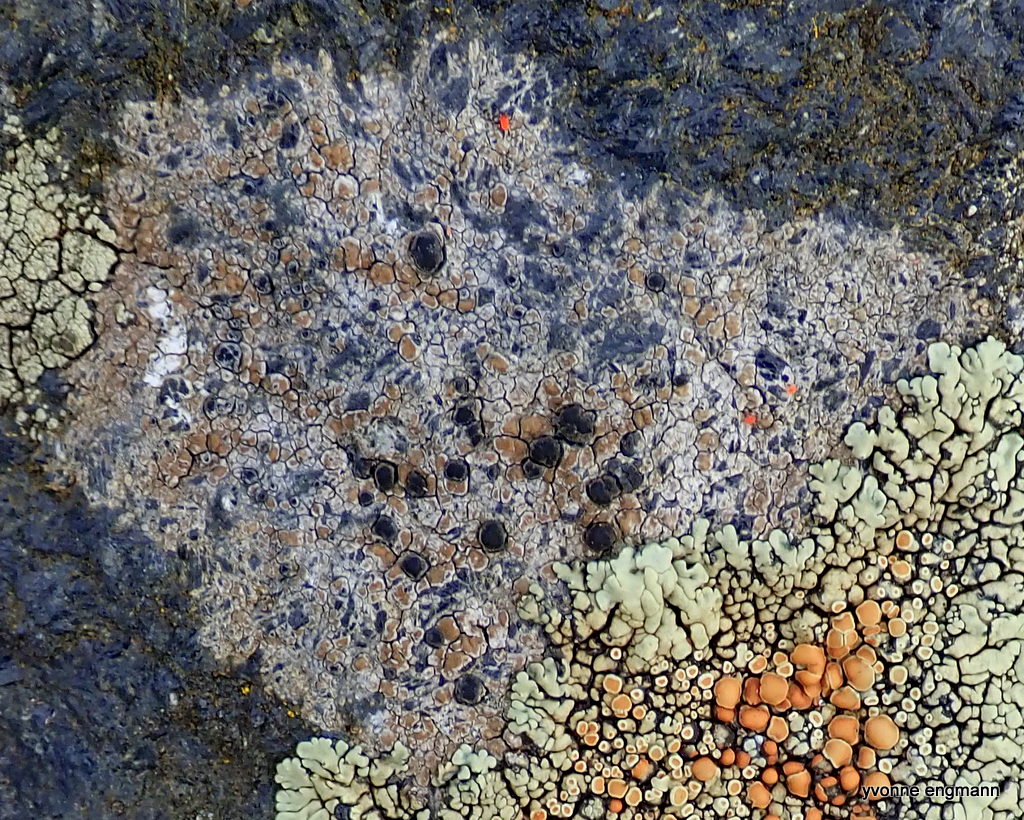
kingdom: Fungi
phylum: Ascomycota
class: Lecanoromycetes
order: Lecideales
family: Lecideaceae
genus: Lecidea
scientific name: Lecidea fuscoatra
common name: rudret skivelav
